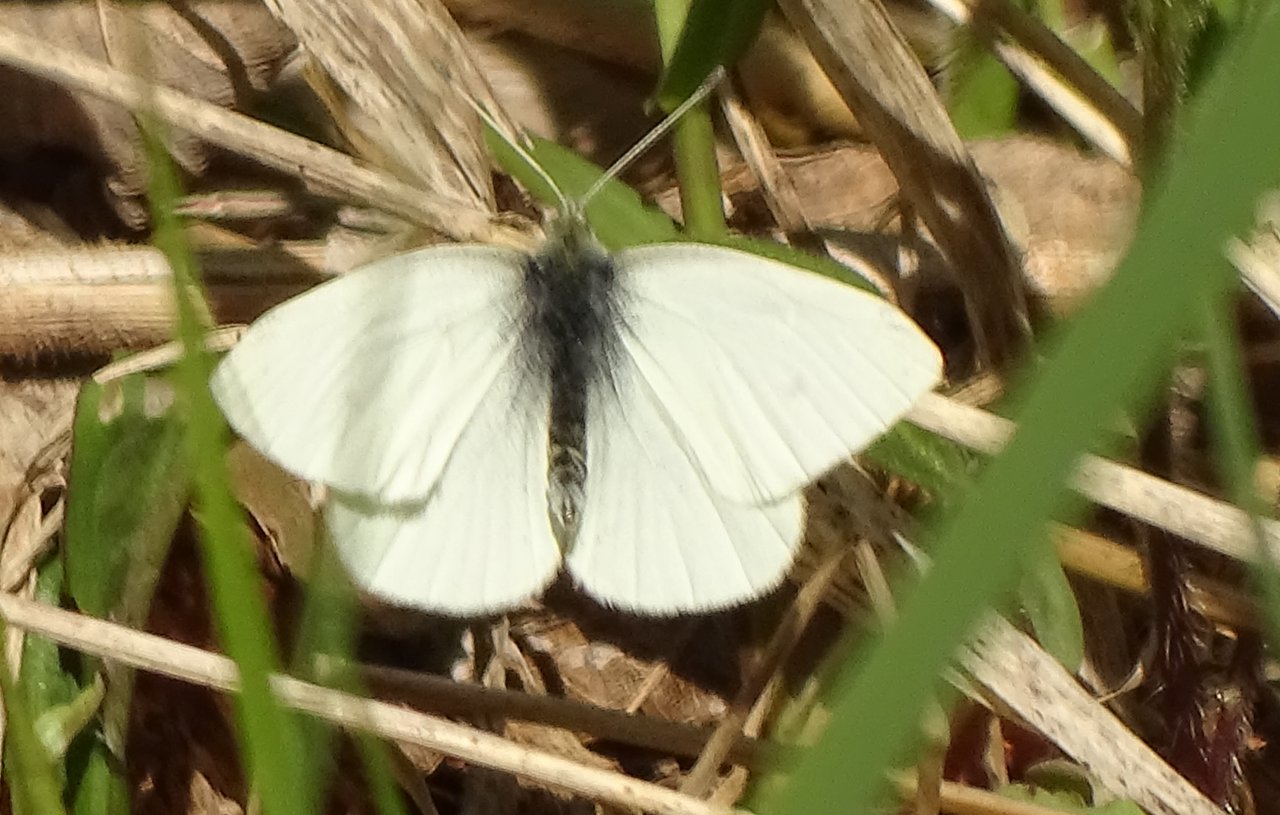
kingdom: Animalia
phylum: Arthropoda
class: Insecta
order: Lepidoptera
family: Pieridae
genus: Pieris
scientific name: Pieris
